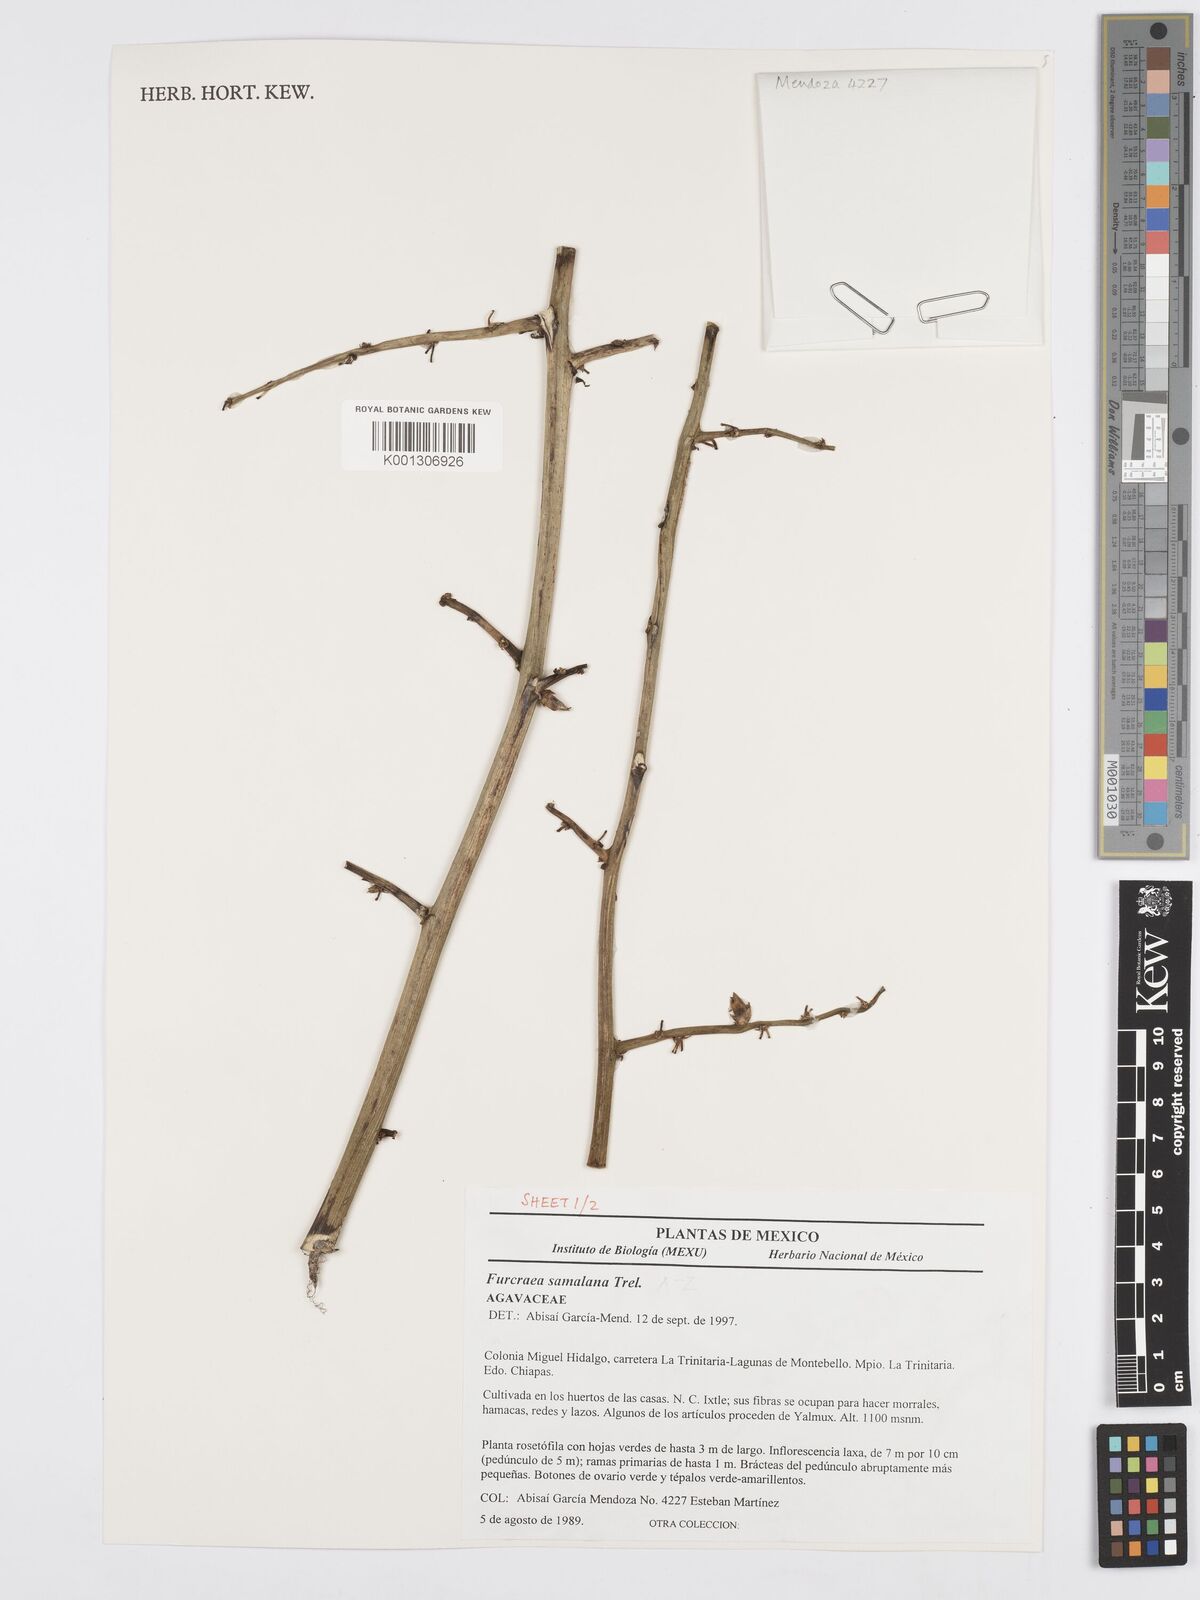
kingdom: Plantae
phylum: Tracheophyta
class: Liliopsida
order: Asparagales
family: Asparagaceae
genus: Furcraea
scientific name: Furcraea samalana
